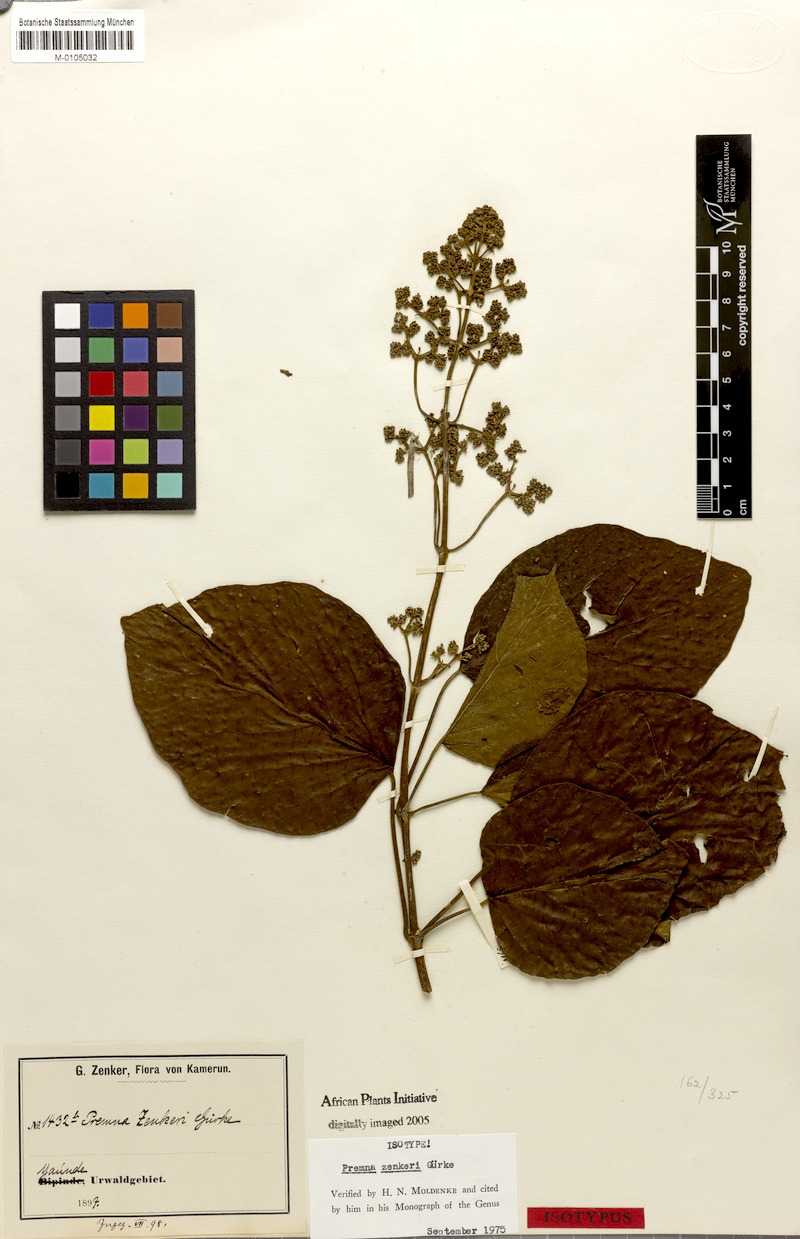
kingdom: Plantae
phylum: Tracheophyta
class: Magnoliopsida
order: Lamiales
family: Lamiaceae
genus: Premna
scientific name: Premna angolensis
